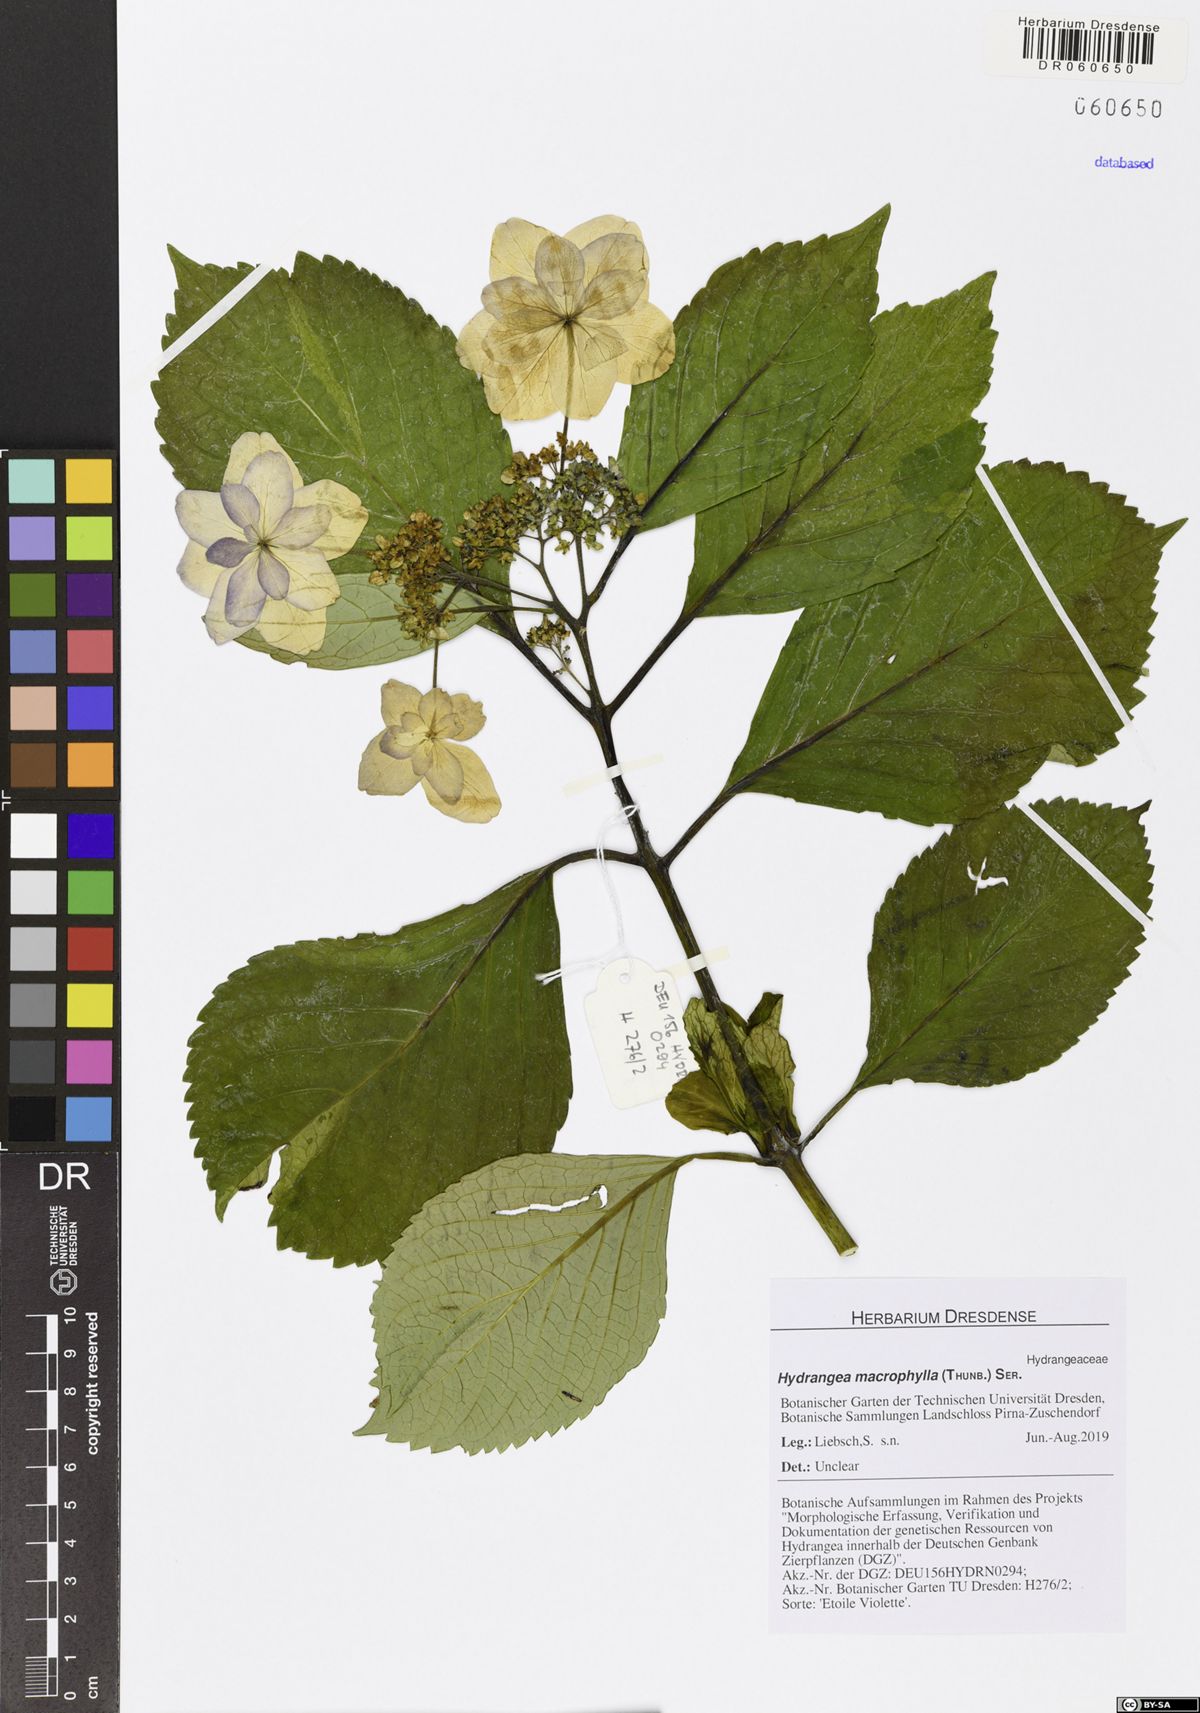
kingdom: Plantae
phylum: Tracheophyta
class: Magnoliopsida
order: Cornales
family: Hydrangeaceae
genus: Hydrangea
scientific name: Hydrangea macrophylla
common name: Hydrangea
